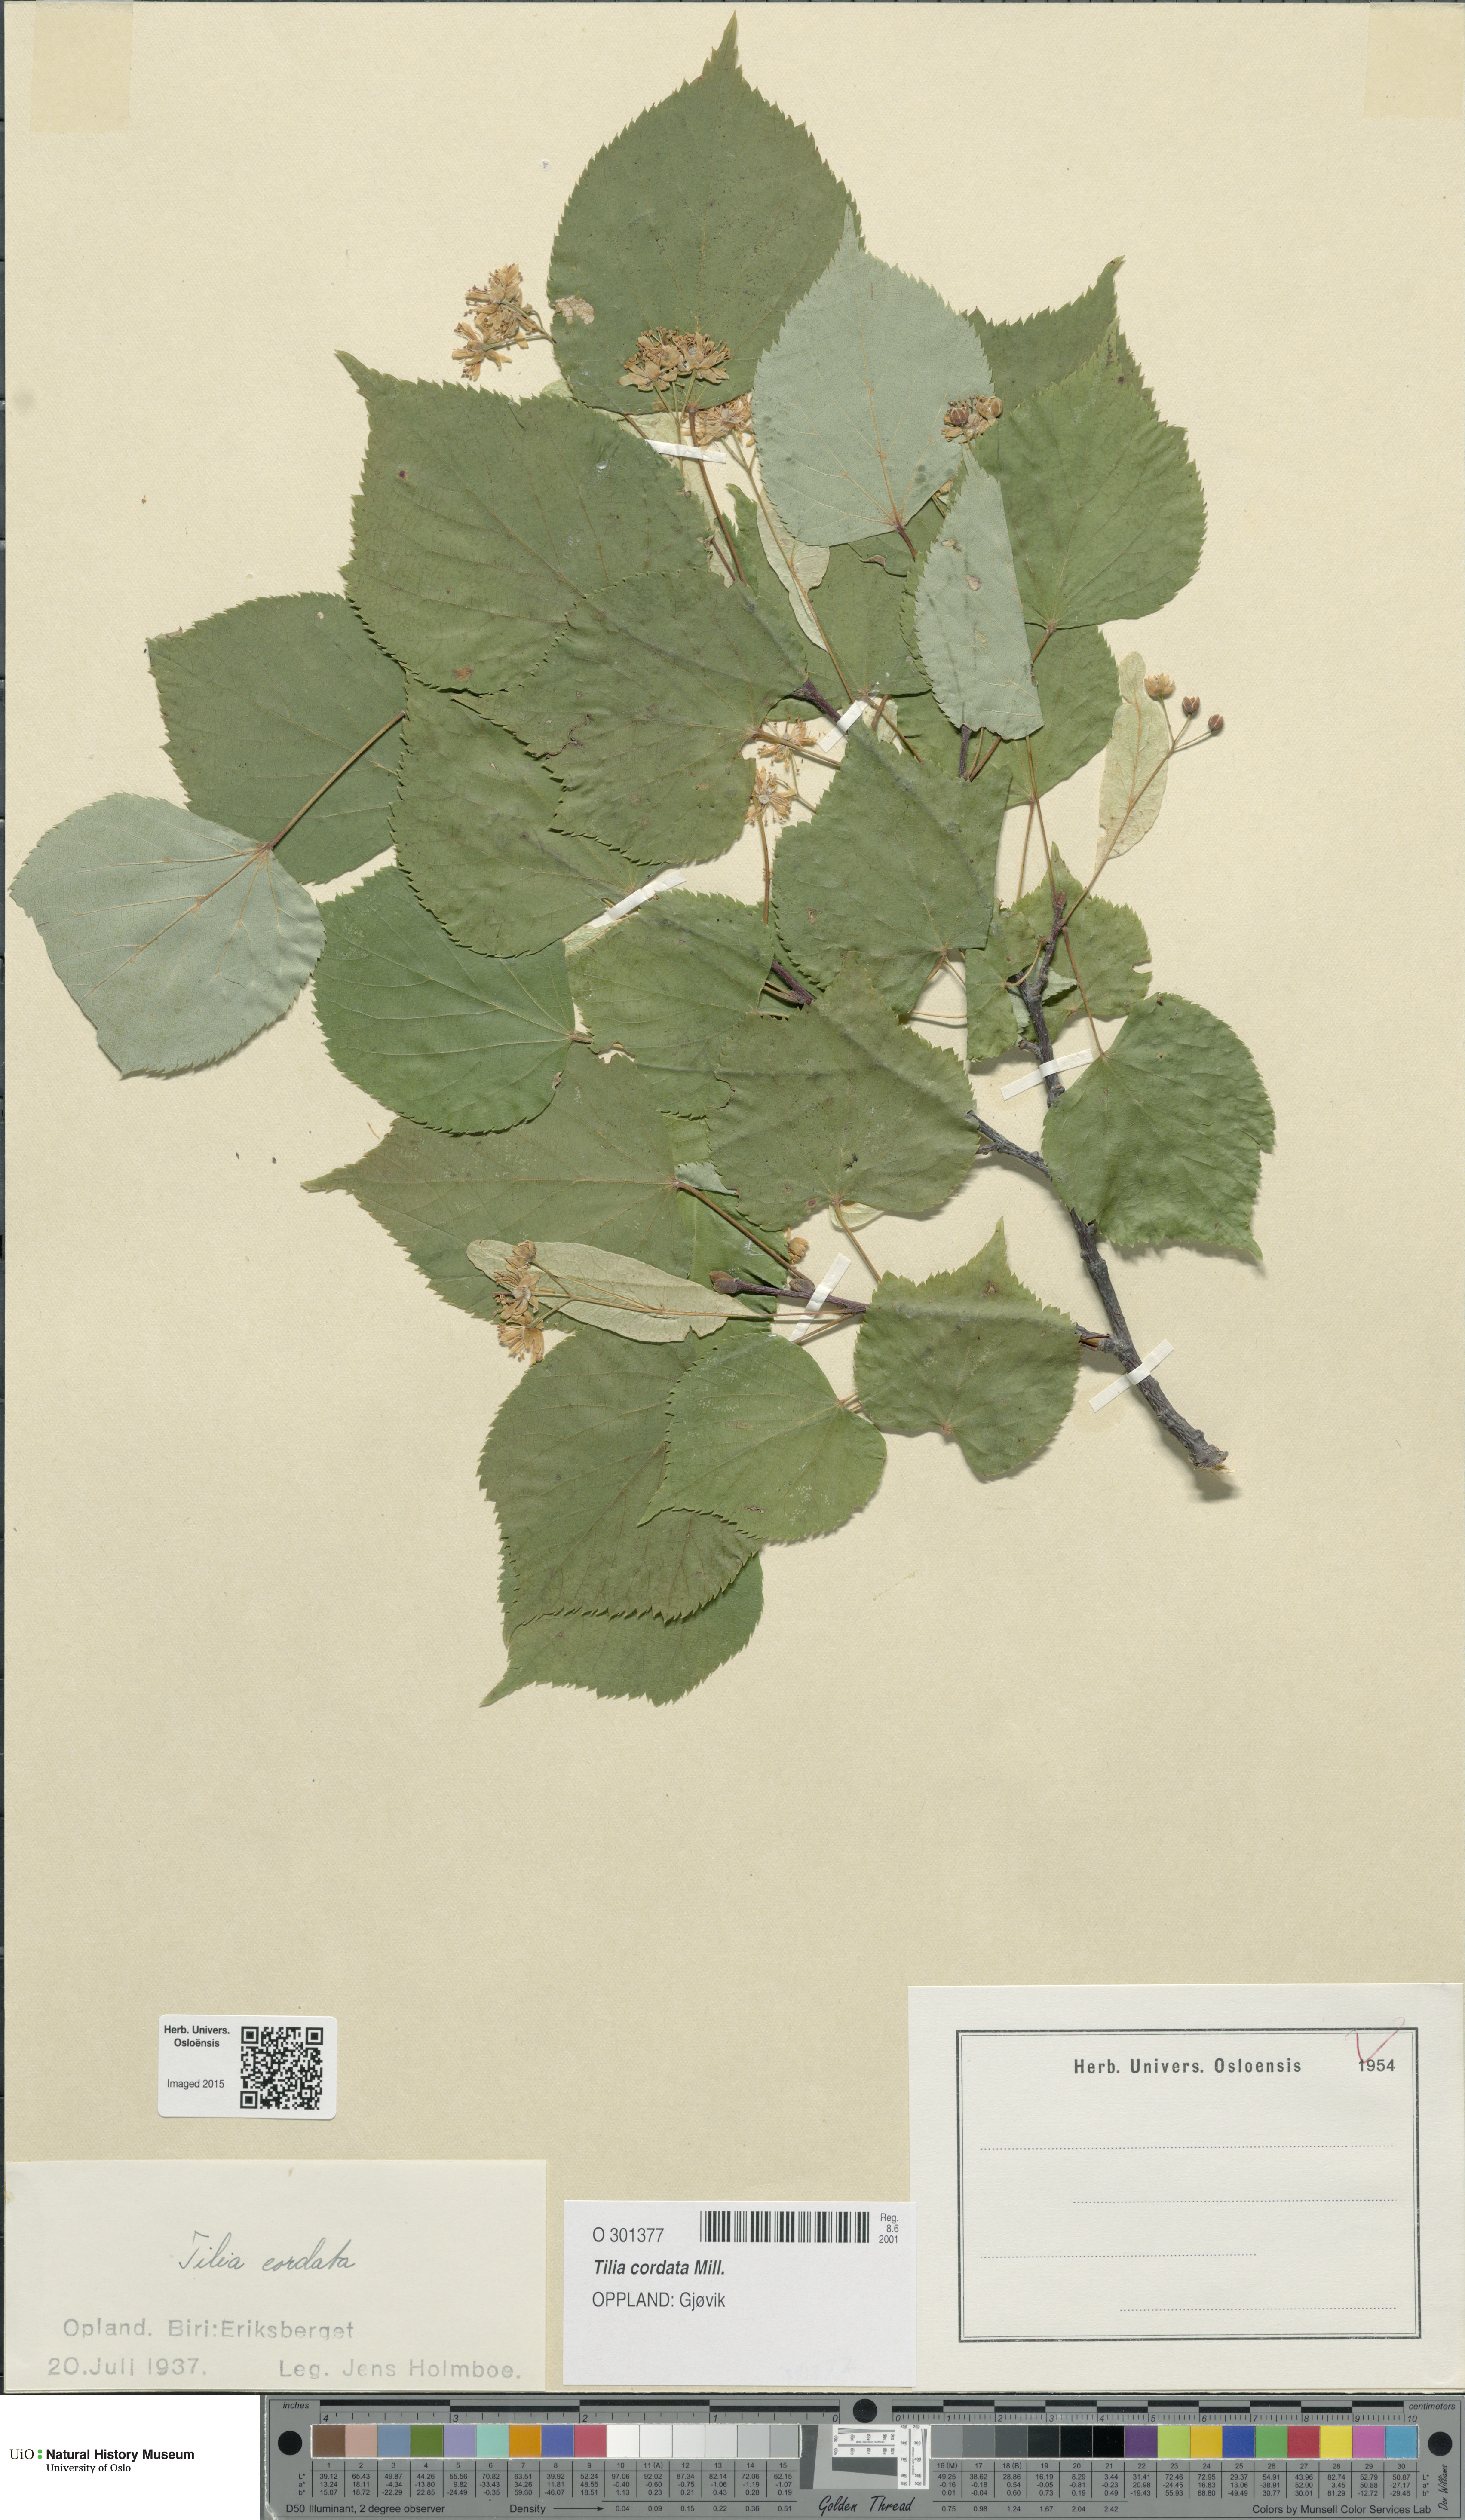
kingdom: Plantae
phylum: Tracheophyta
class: Magnoliopsida
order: Malvales
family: Malvaceae
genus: Tilia
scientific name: Tilia cordata
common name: Small-leaved lime
